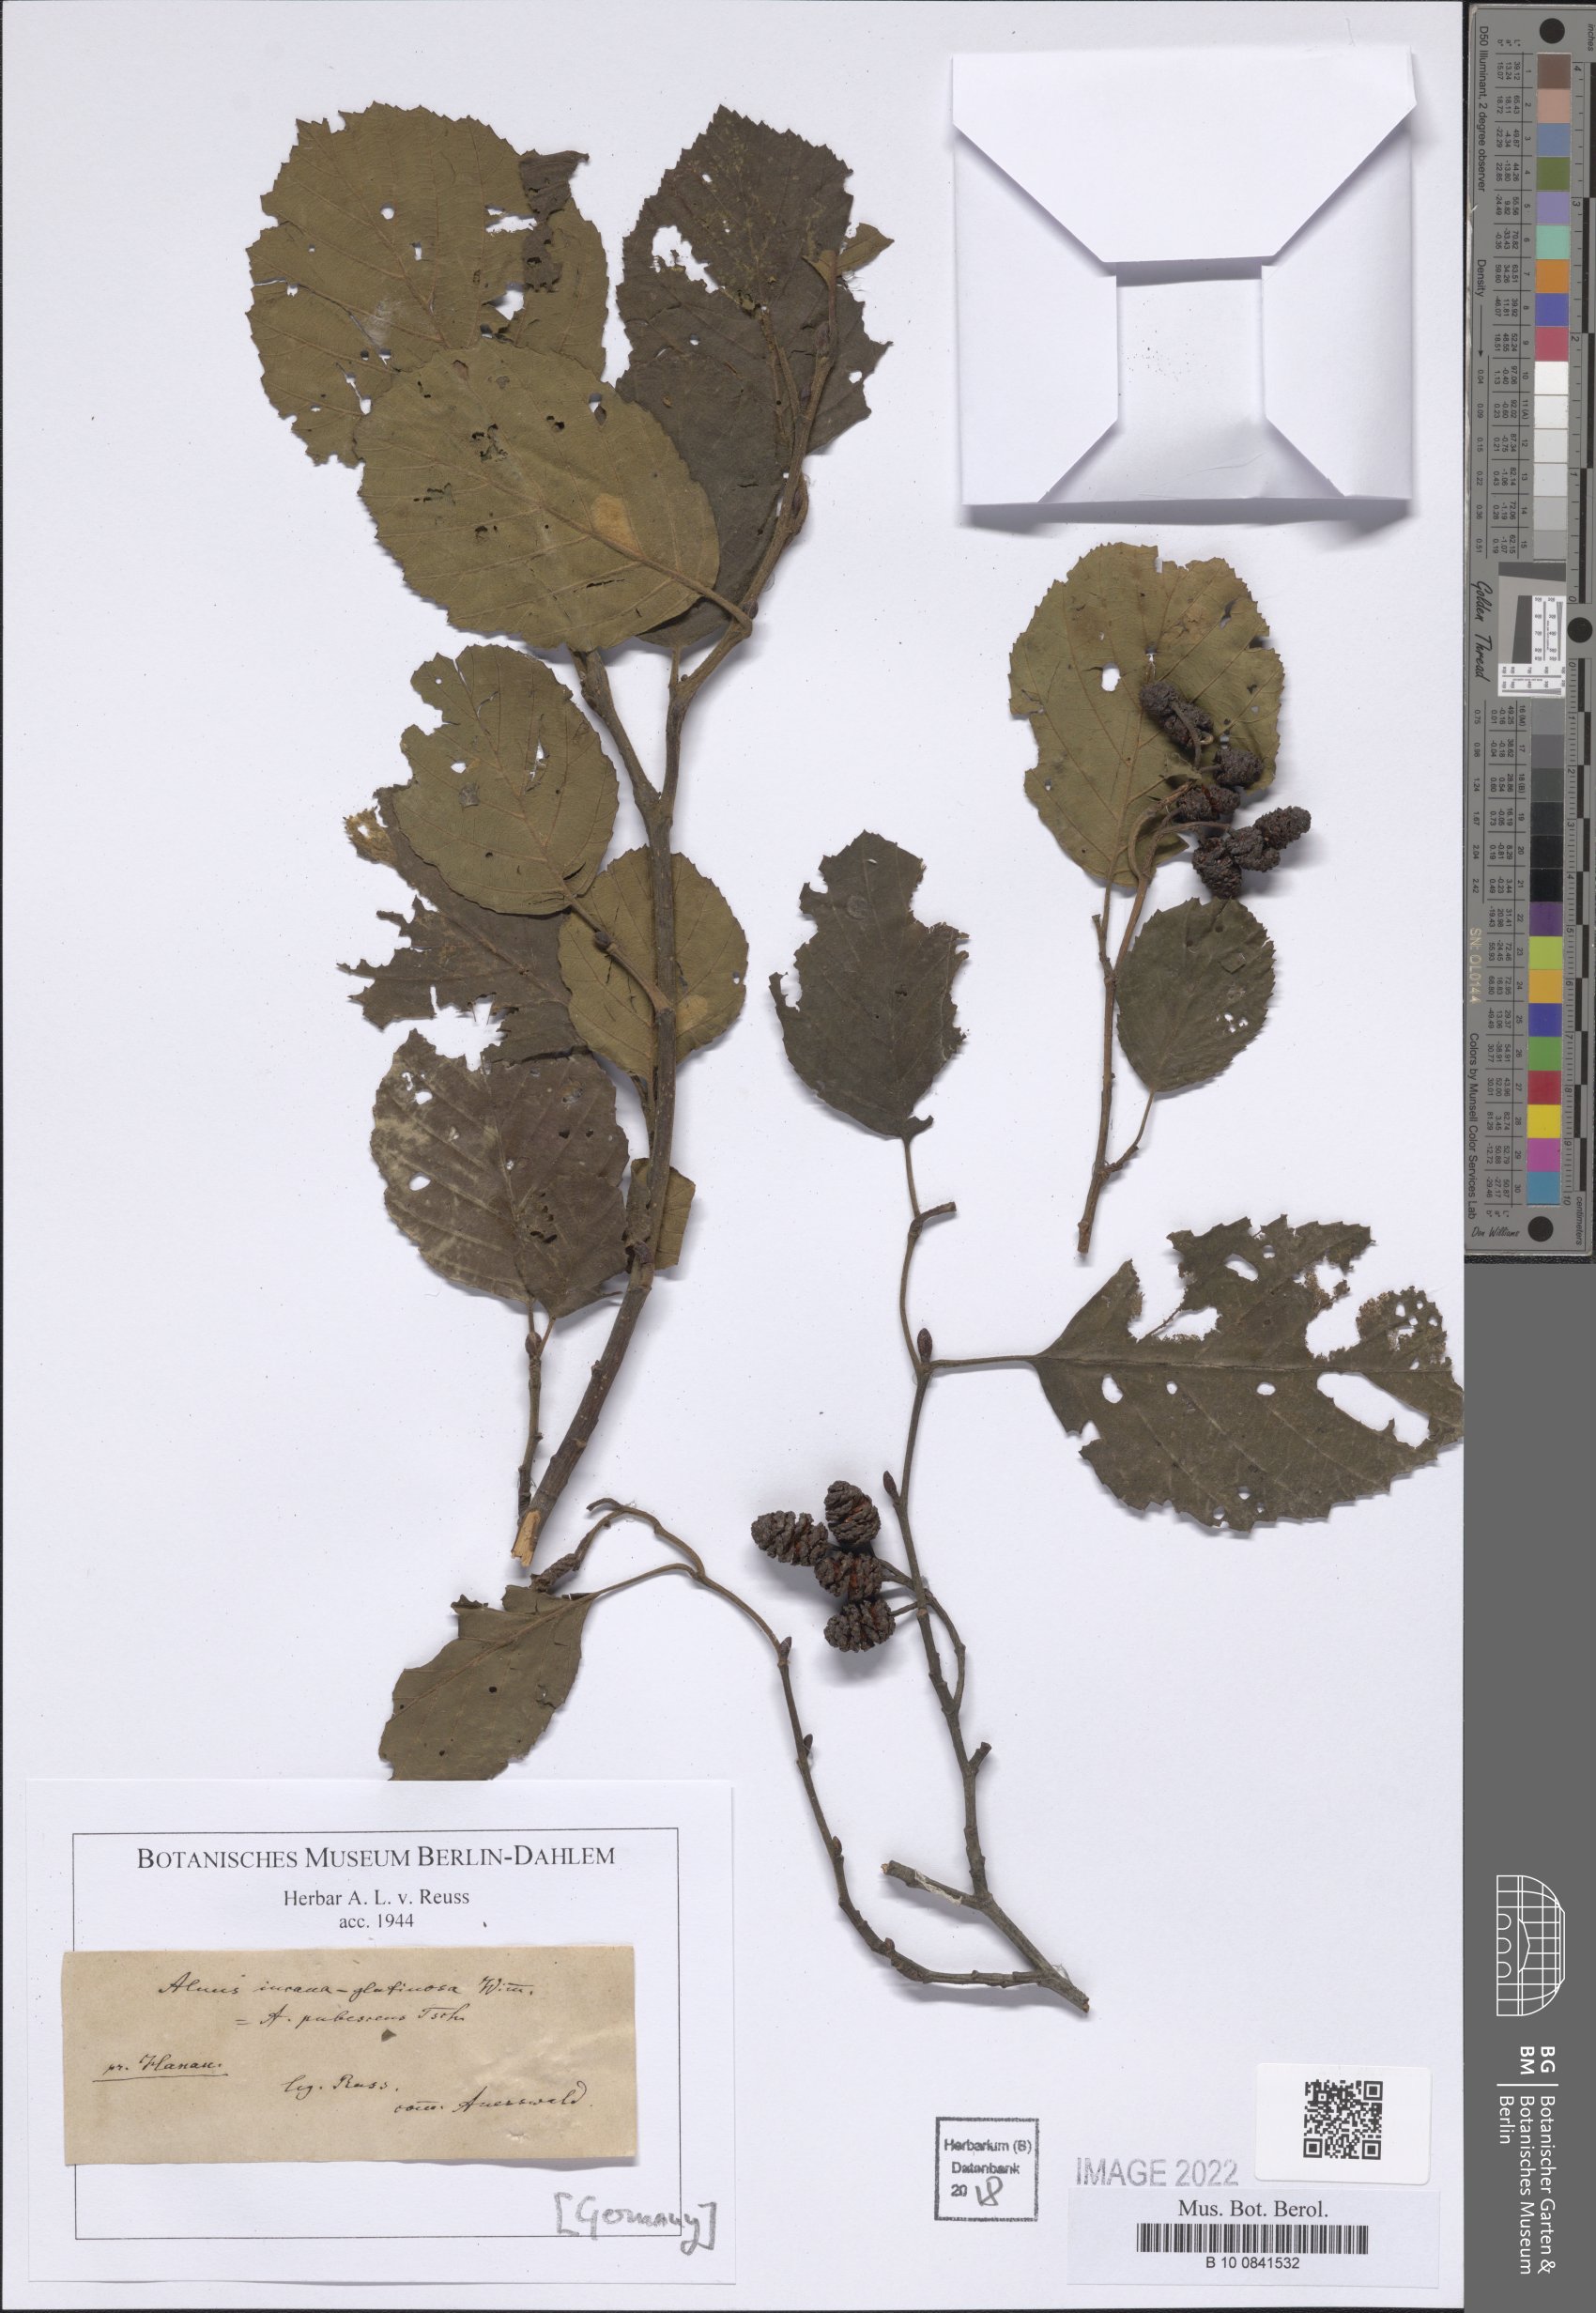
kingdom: Plantae
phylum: Tracheophyta
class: Magnoliopsida
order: Fagales
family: Betulaceae
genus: Alnus
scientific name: Alnus pubescens
